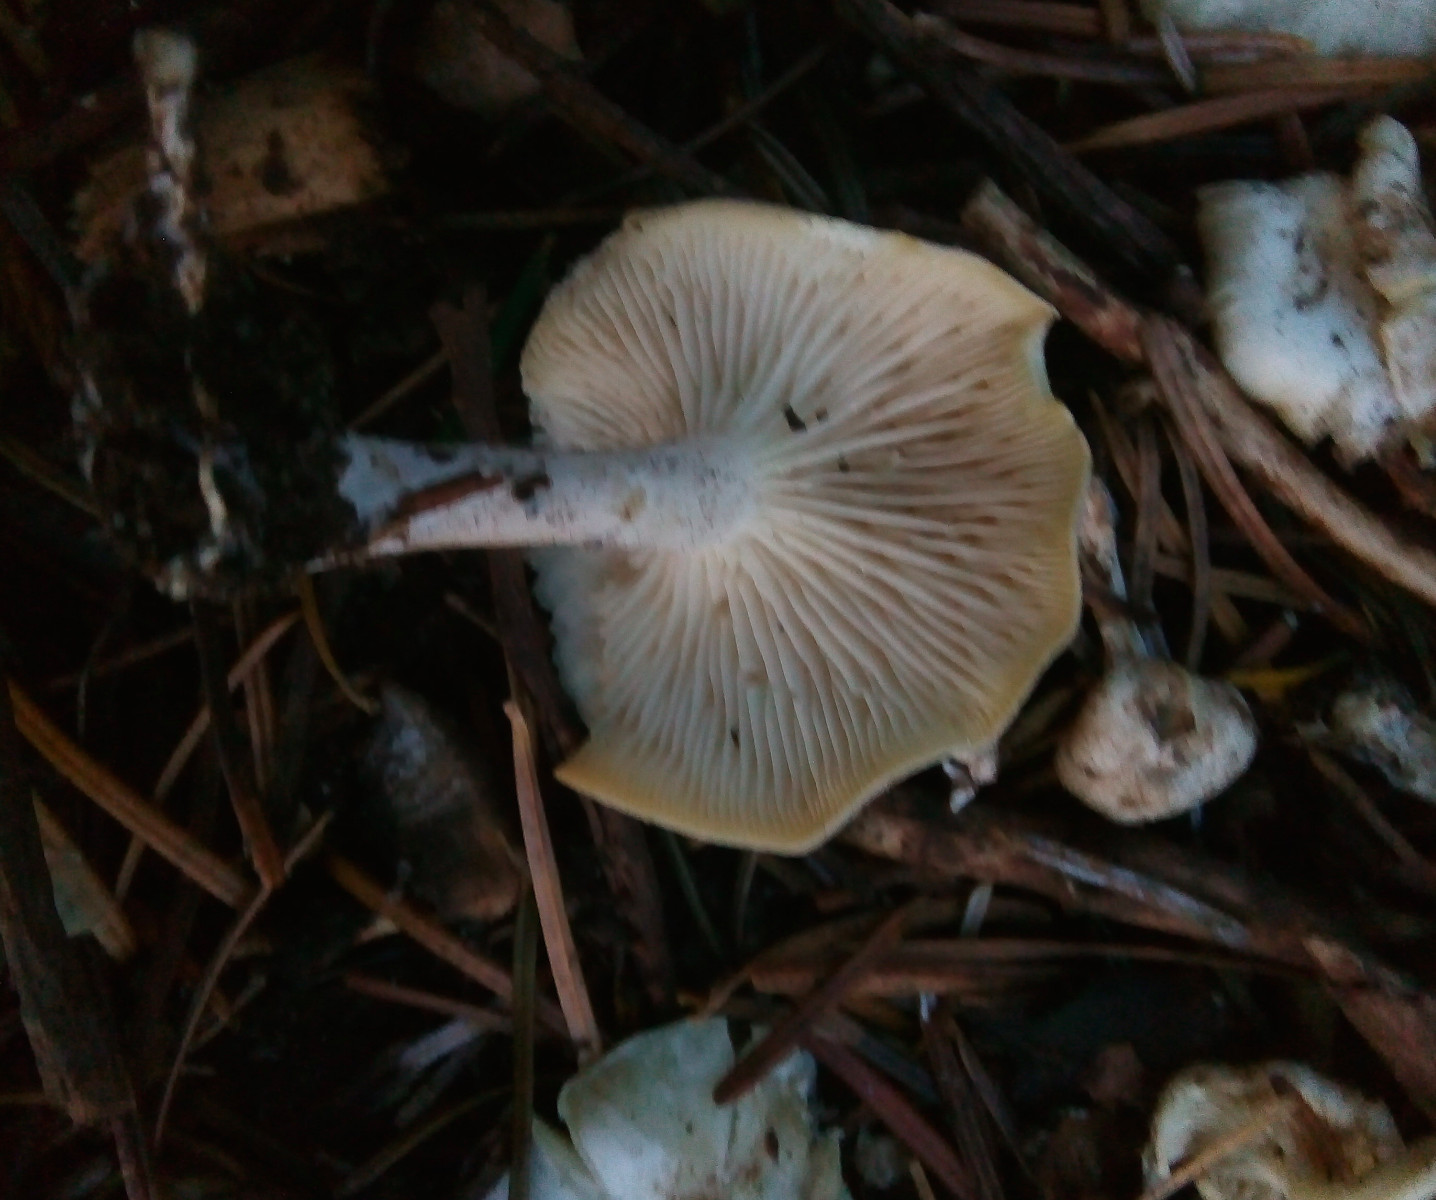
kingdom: Fungi
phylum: Basidiomycota
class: Agaricomycetes
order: Agaricales
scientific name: Agaricales
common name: champignonordenen
